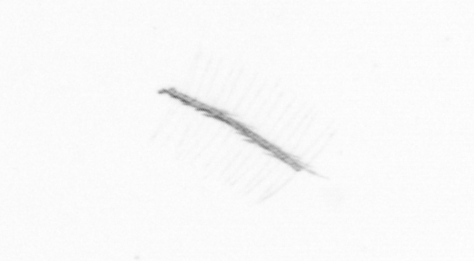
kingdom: Chromista
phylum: Ochrophyta
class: Bacillariophyceae
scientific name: Bacillariophyceae
